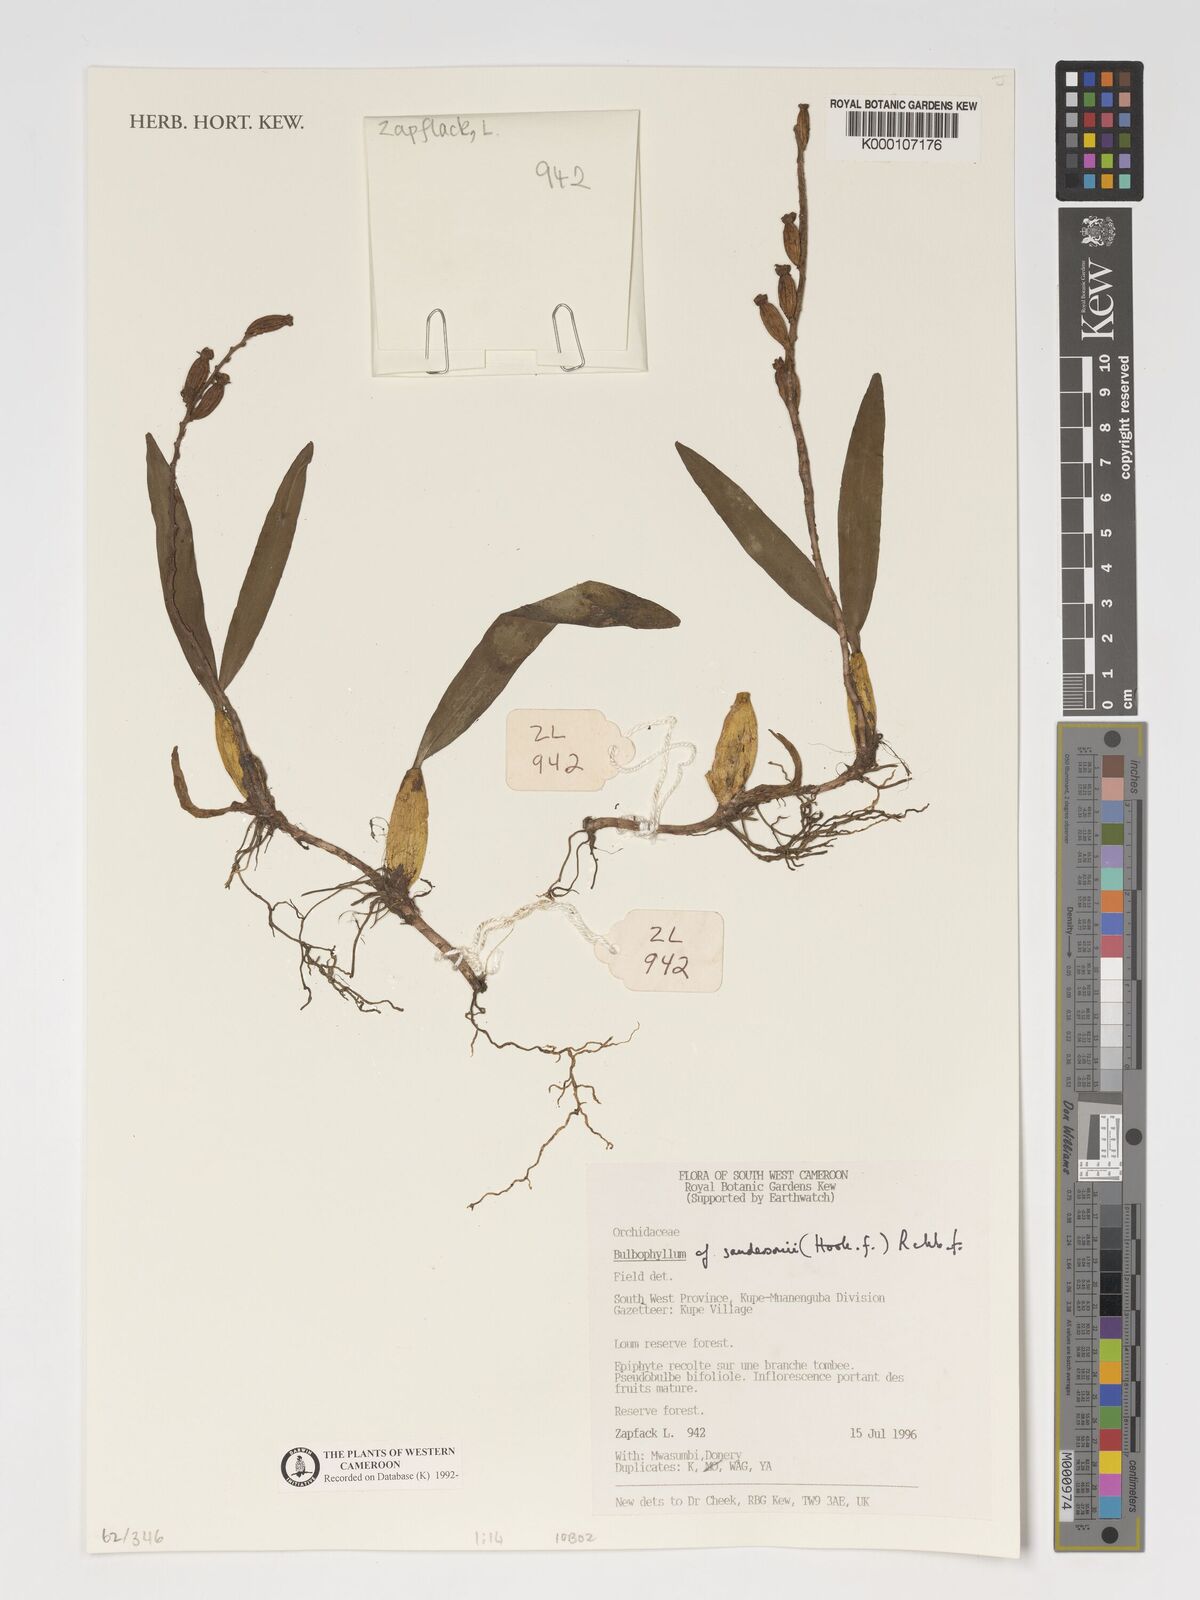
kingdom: Plantae
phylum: Tracheophyta
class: Liliopsida
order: Asparagales
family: Orchidaceae
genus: Bulbophyllum
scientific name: Bulbophyllum sandersonii
